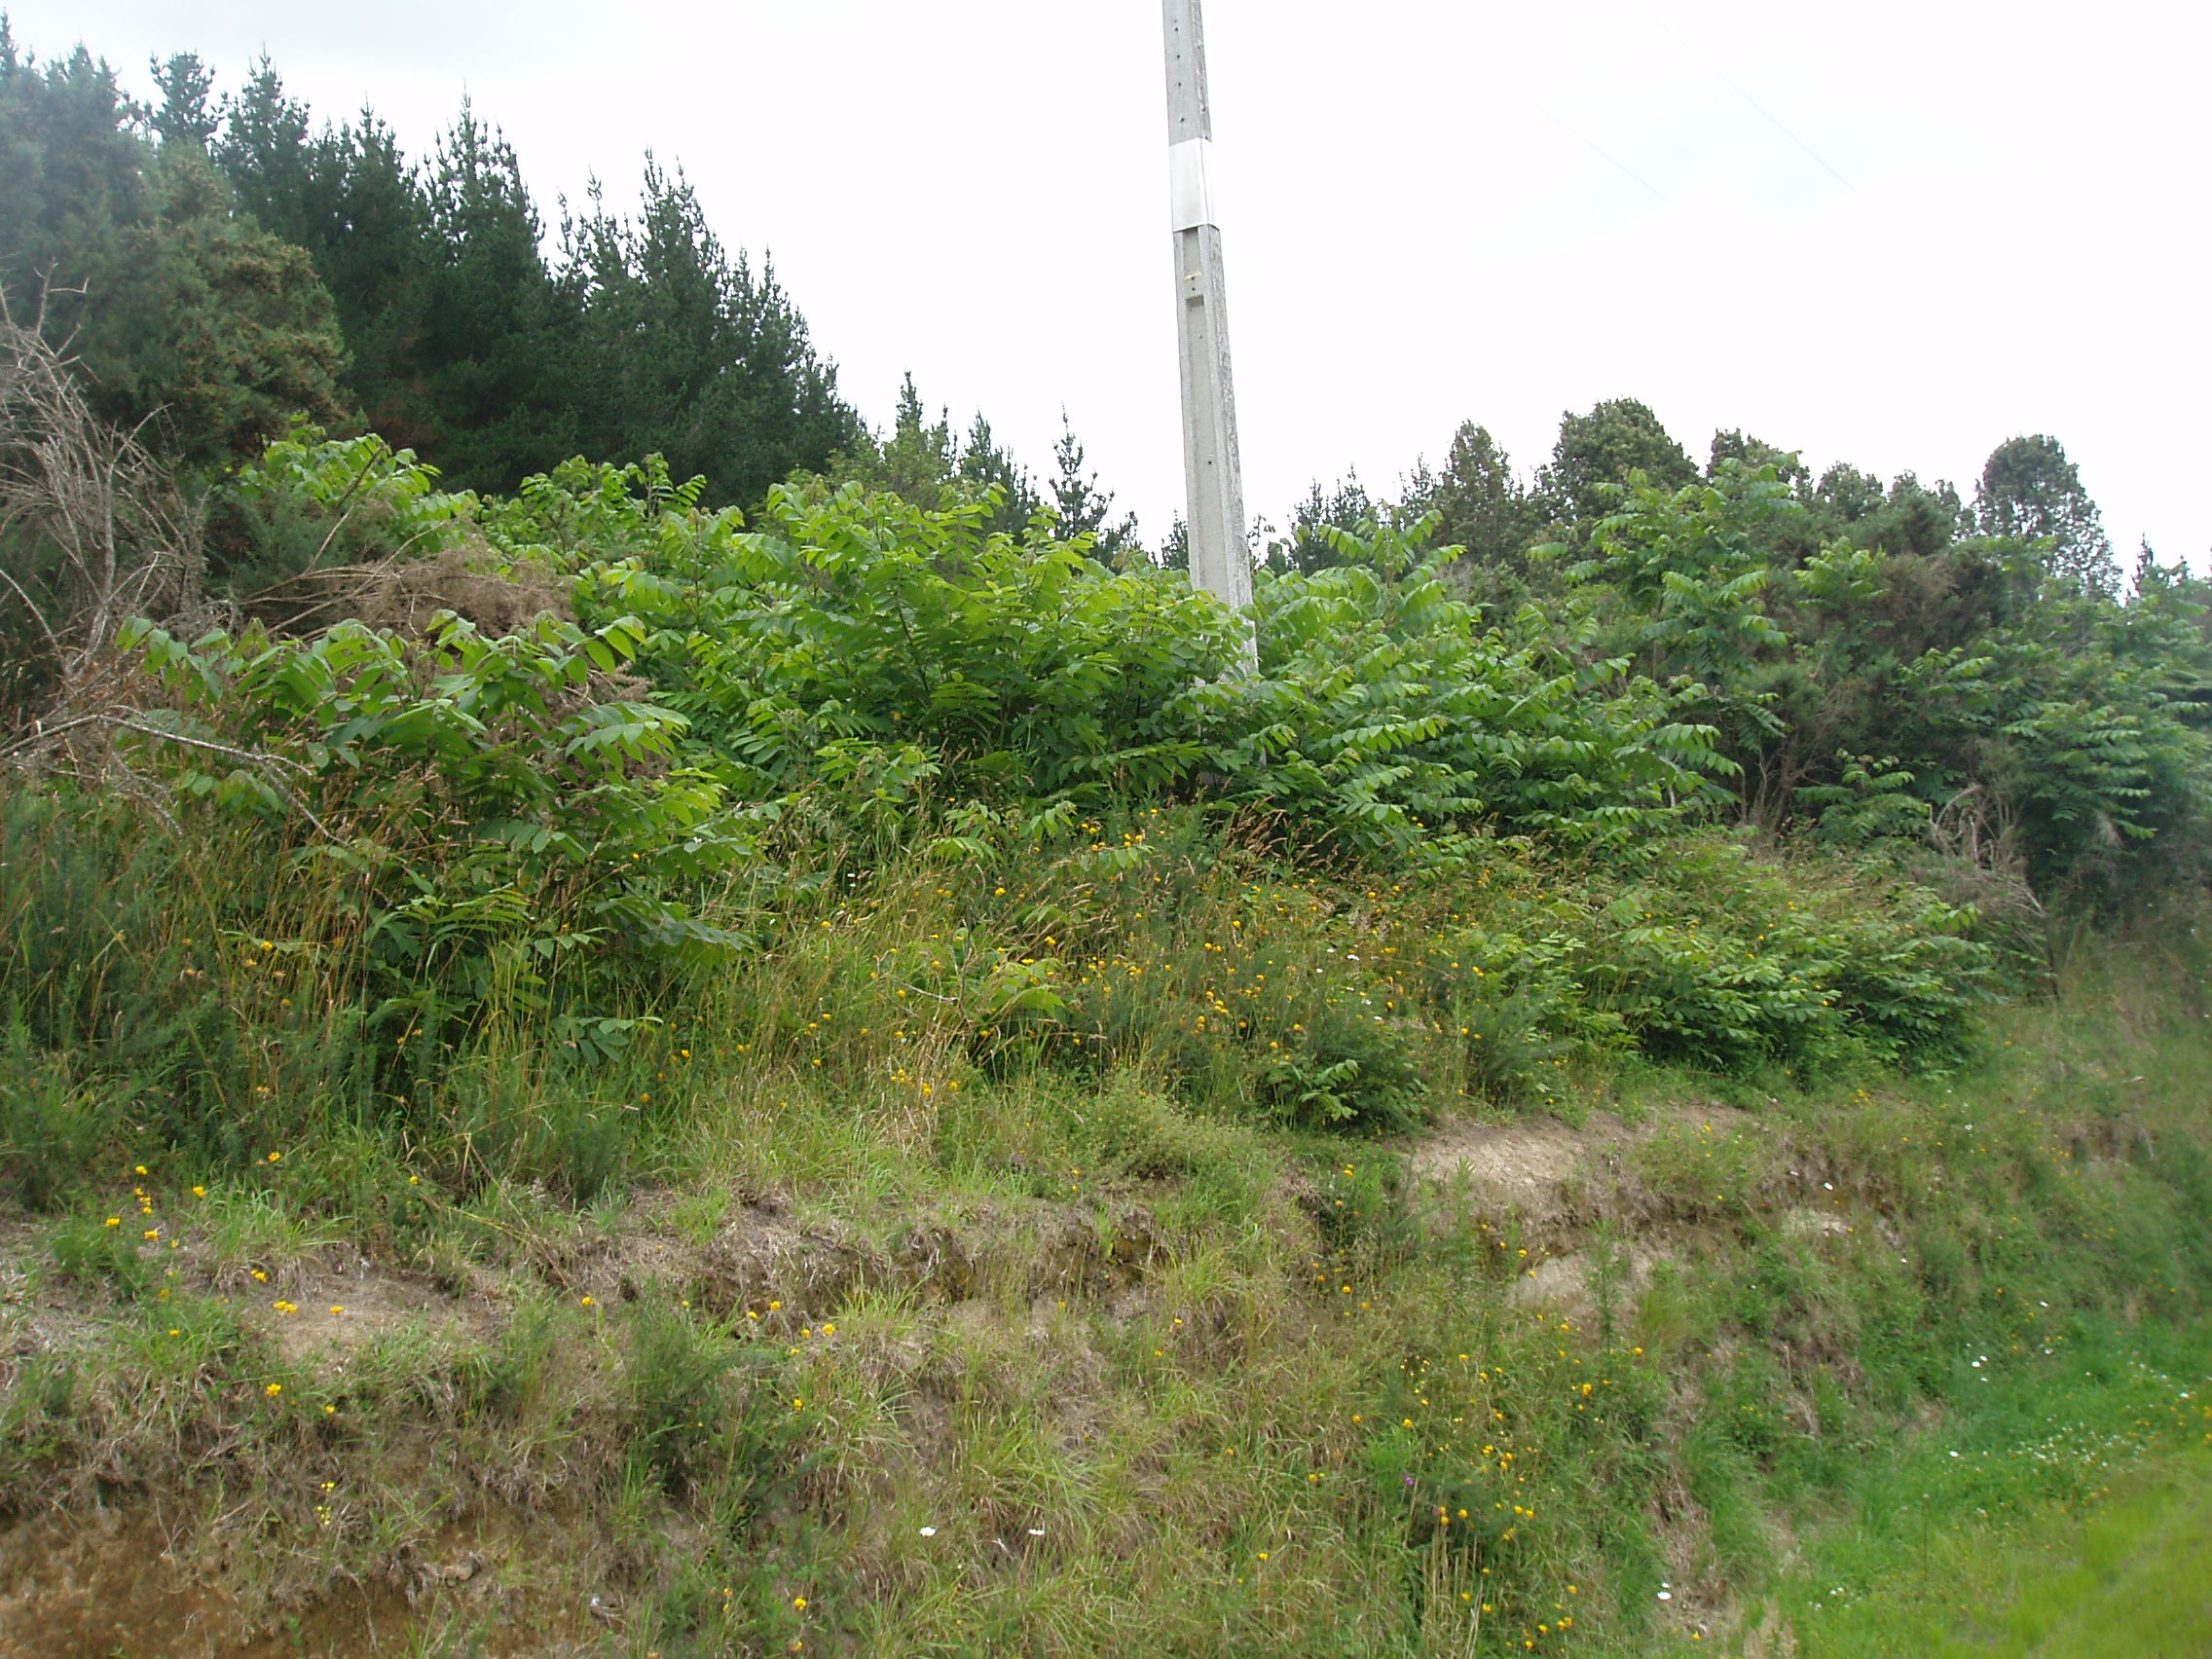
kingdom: Plantae
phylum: Tracheophyta
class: Magnoliopsida
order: Fagales
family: Juglandaceae
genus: Juglans
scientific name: Juglans ailantifolia
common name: Japanese walnut
